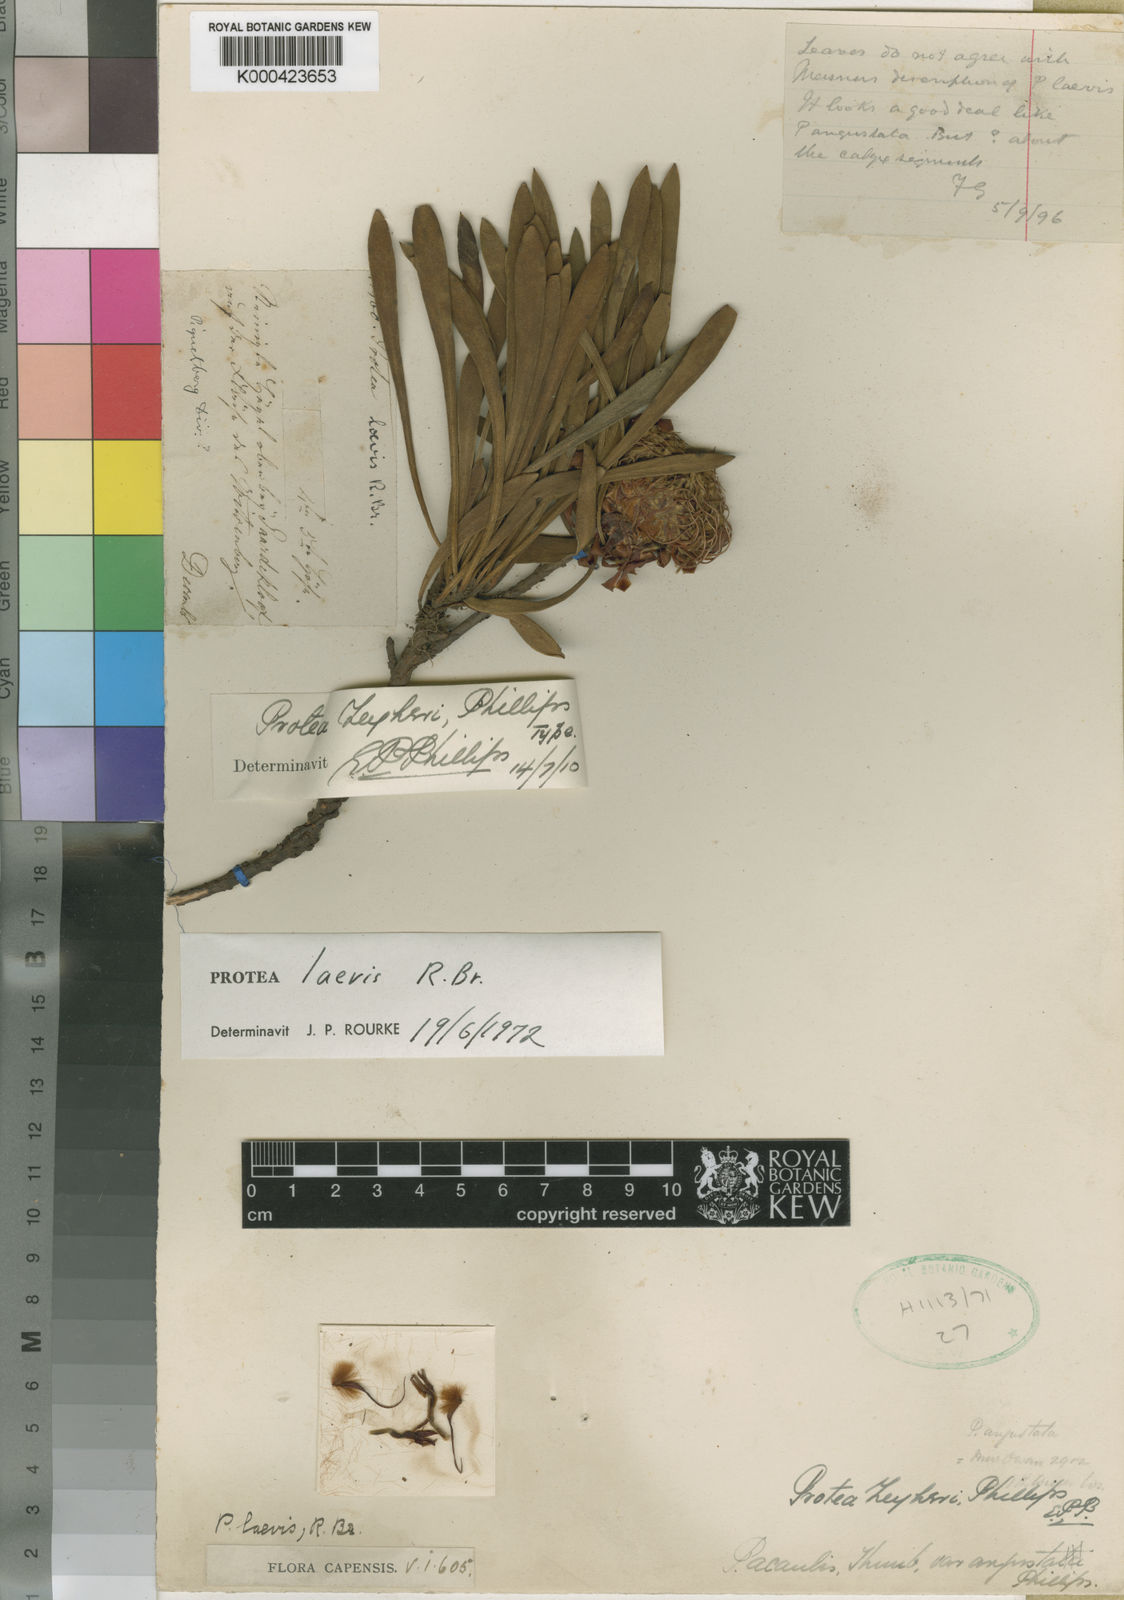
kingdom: Plantae
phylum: Tracheophyta
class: Magnoliopsida
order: Proteales
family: Proteaceae
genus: Protea
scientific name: Protea laevis
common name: Smooth-leaf sugarbush
